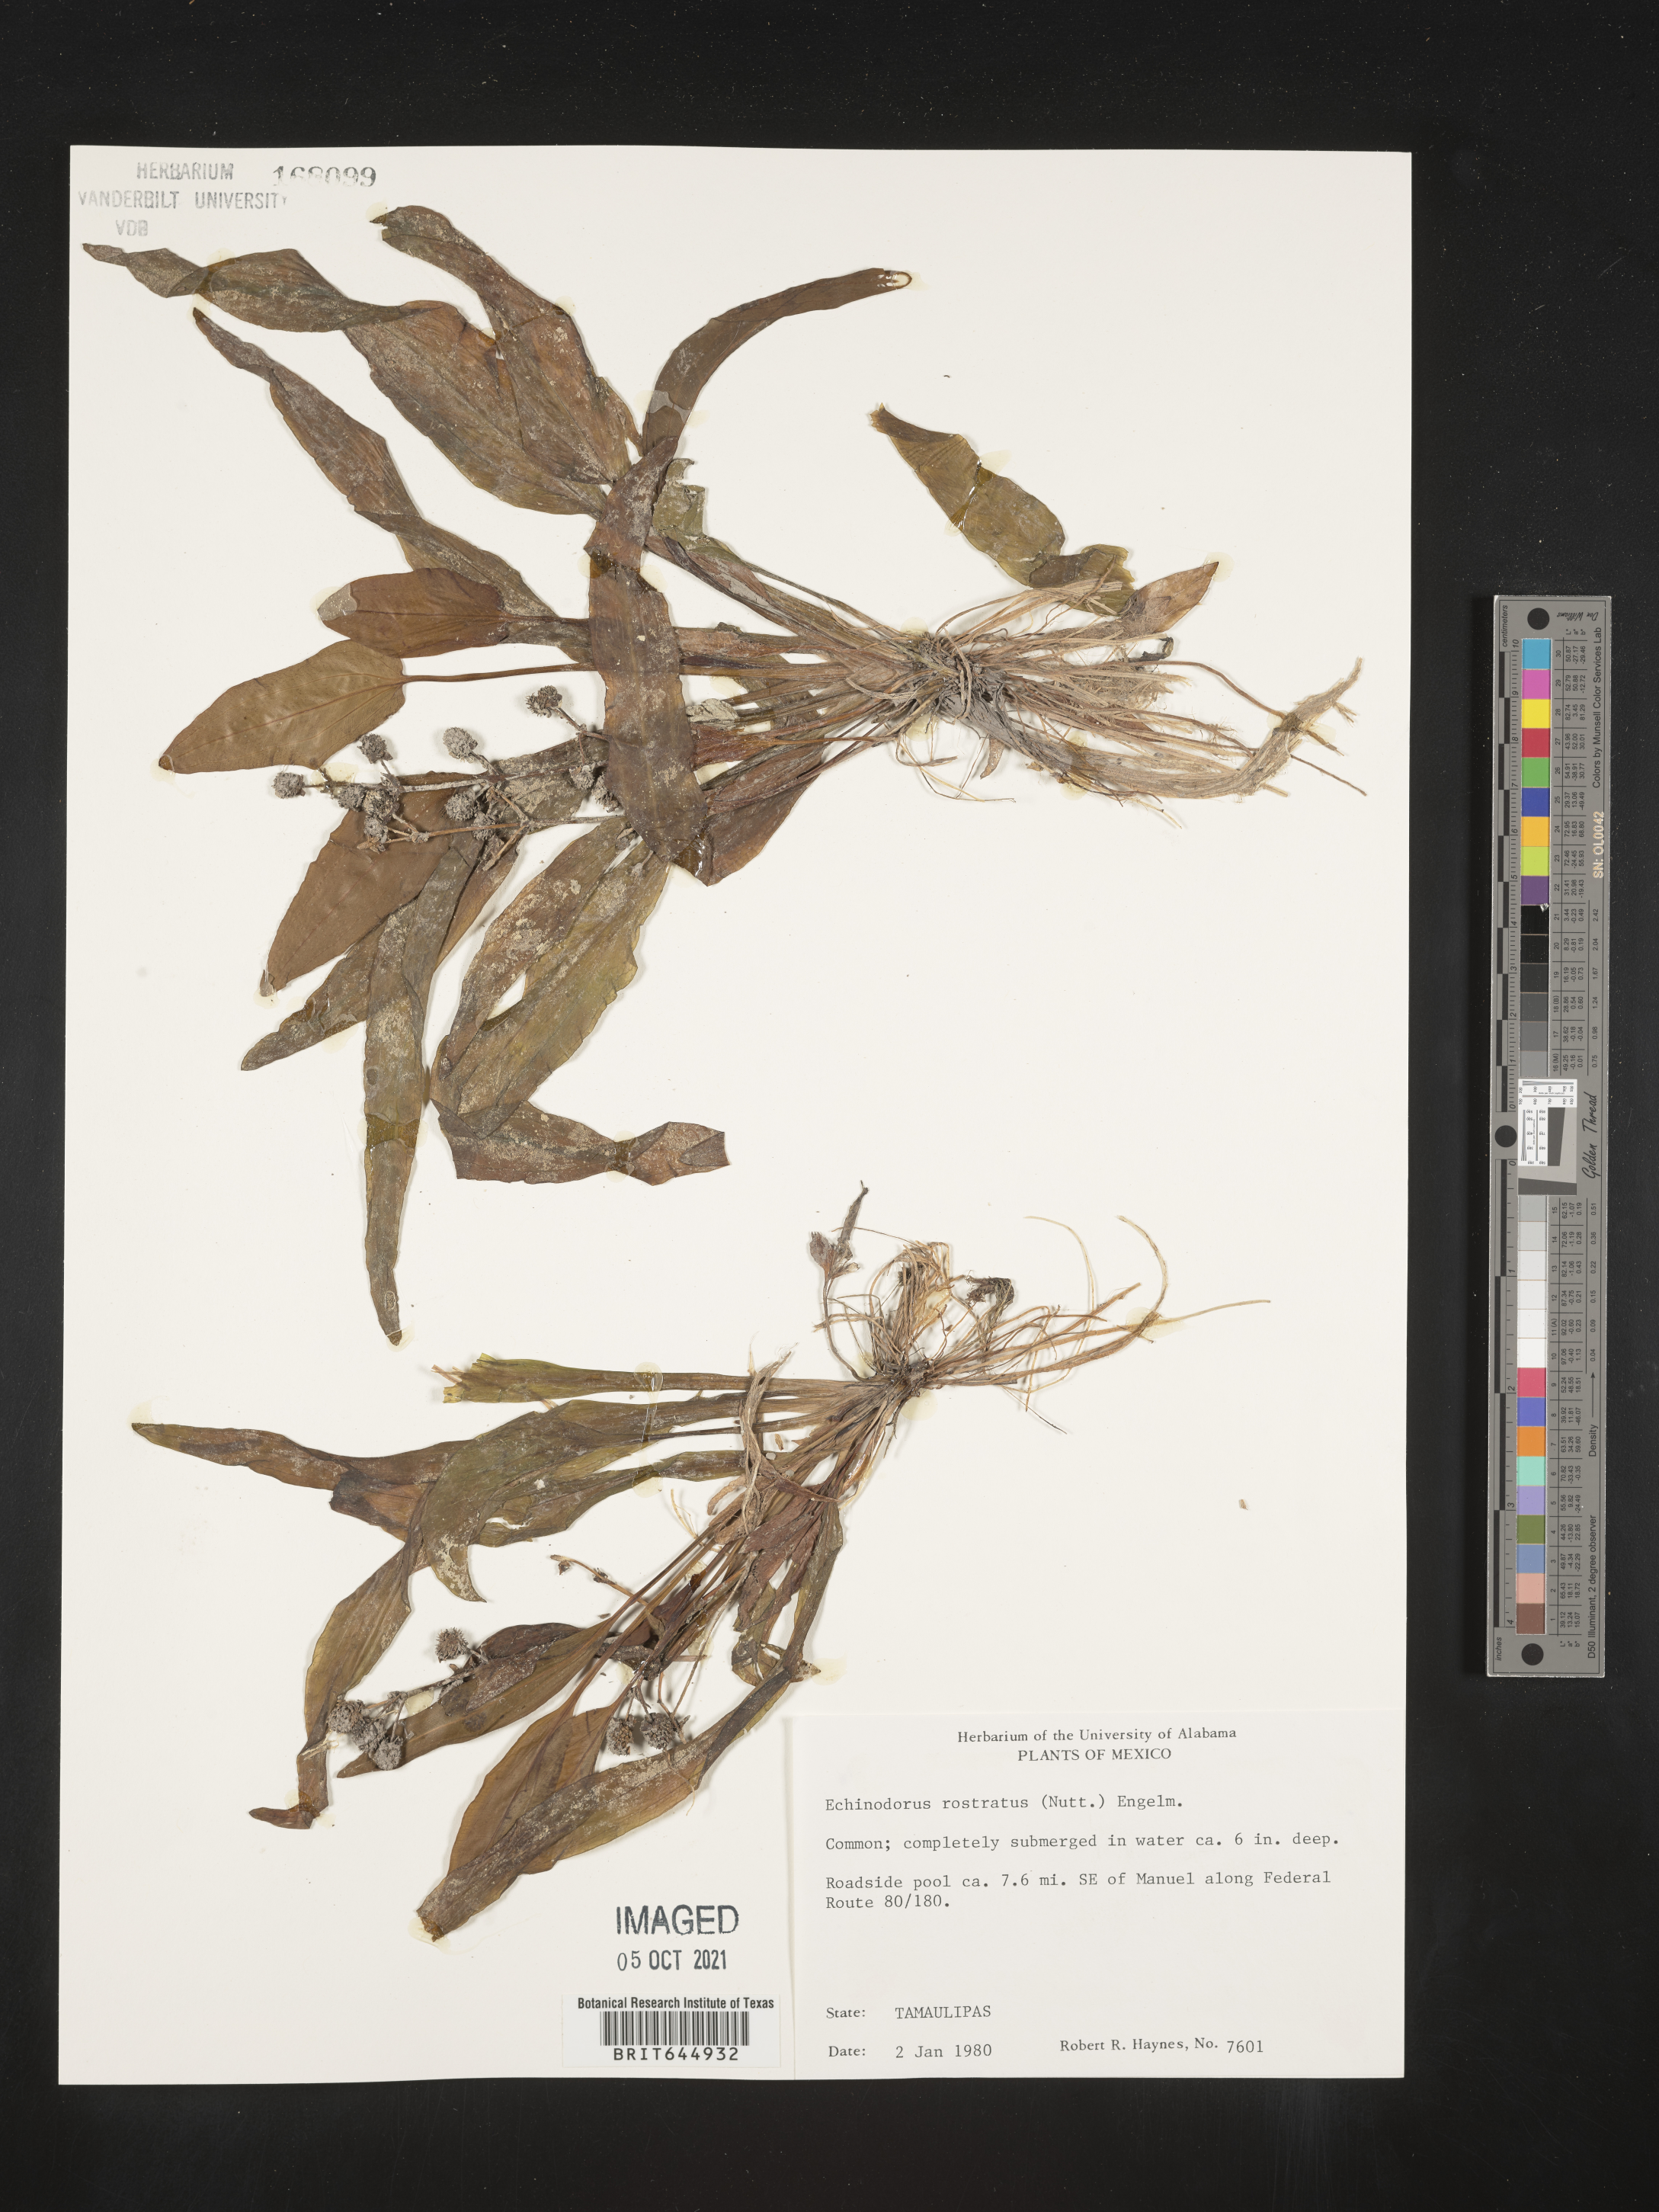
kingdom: Plantae
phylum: Tracheophyta
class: Liliopsida
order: Alismatales
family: Alismataceae
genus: Echinodorus
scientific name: Echinodorus
